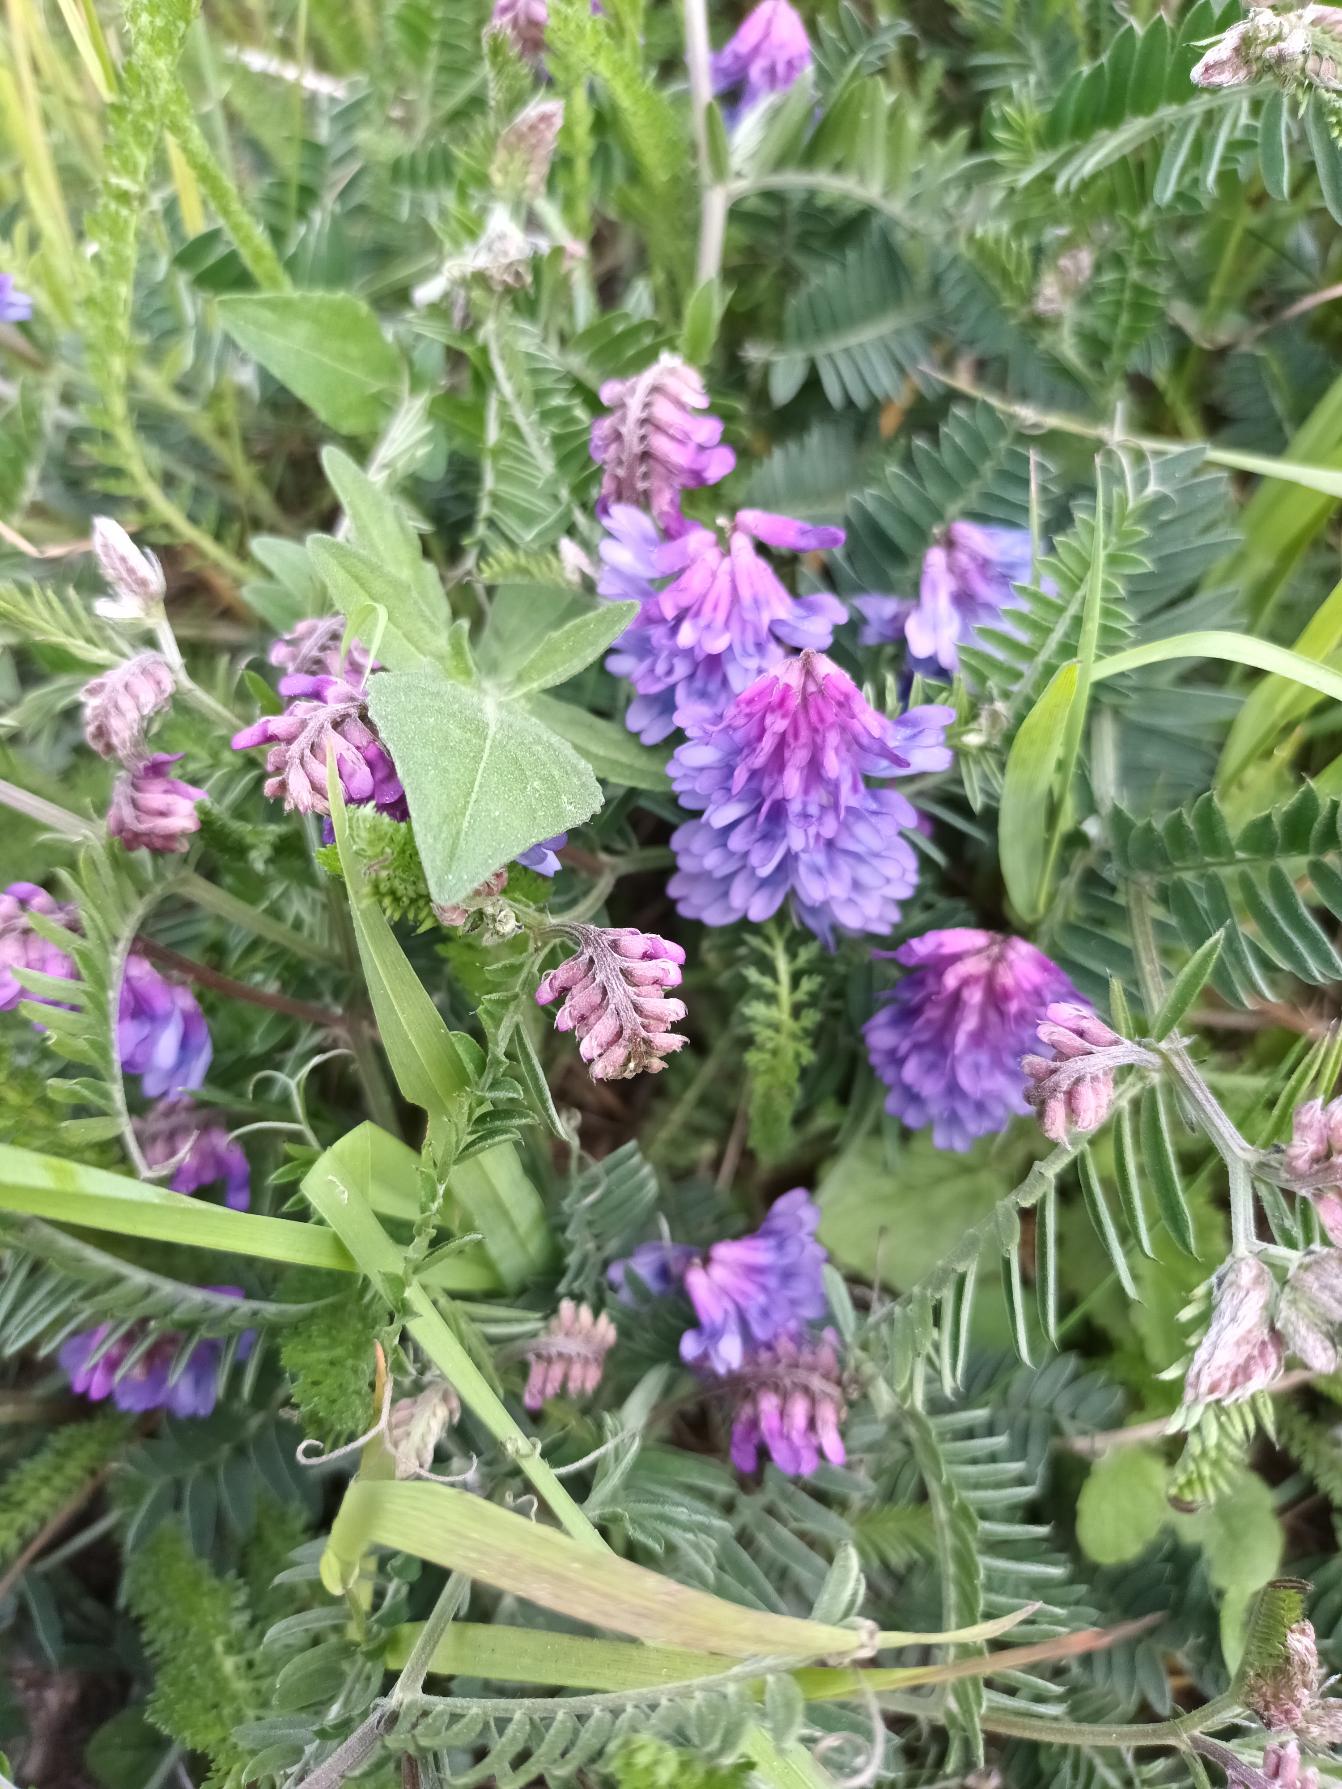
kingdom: Plantae
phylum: Tracheophyta
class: Magnoliopsida
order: Fabales
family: Fabaceae
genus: Vicia
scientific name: Vicia cracca
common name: Muse-vikke
